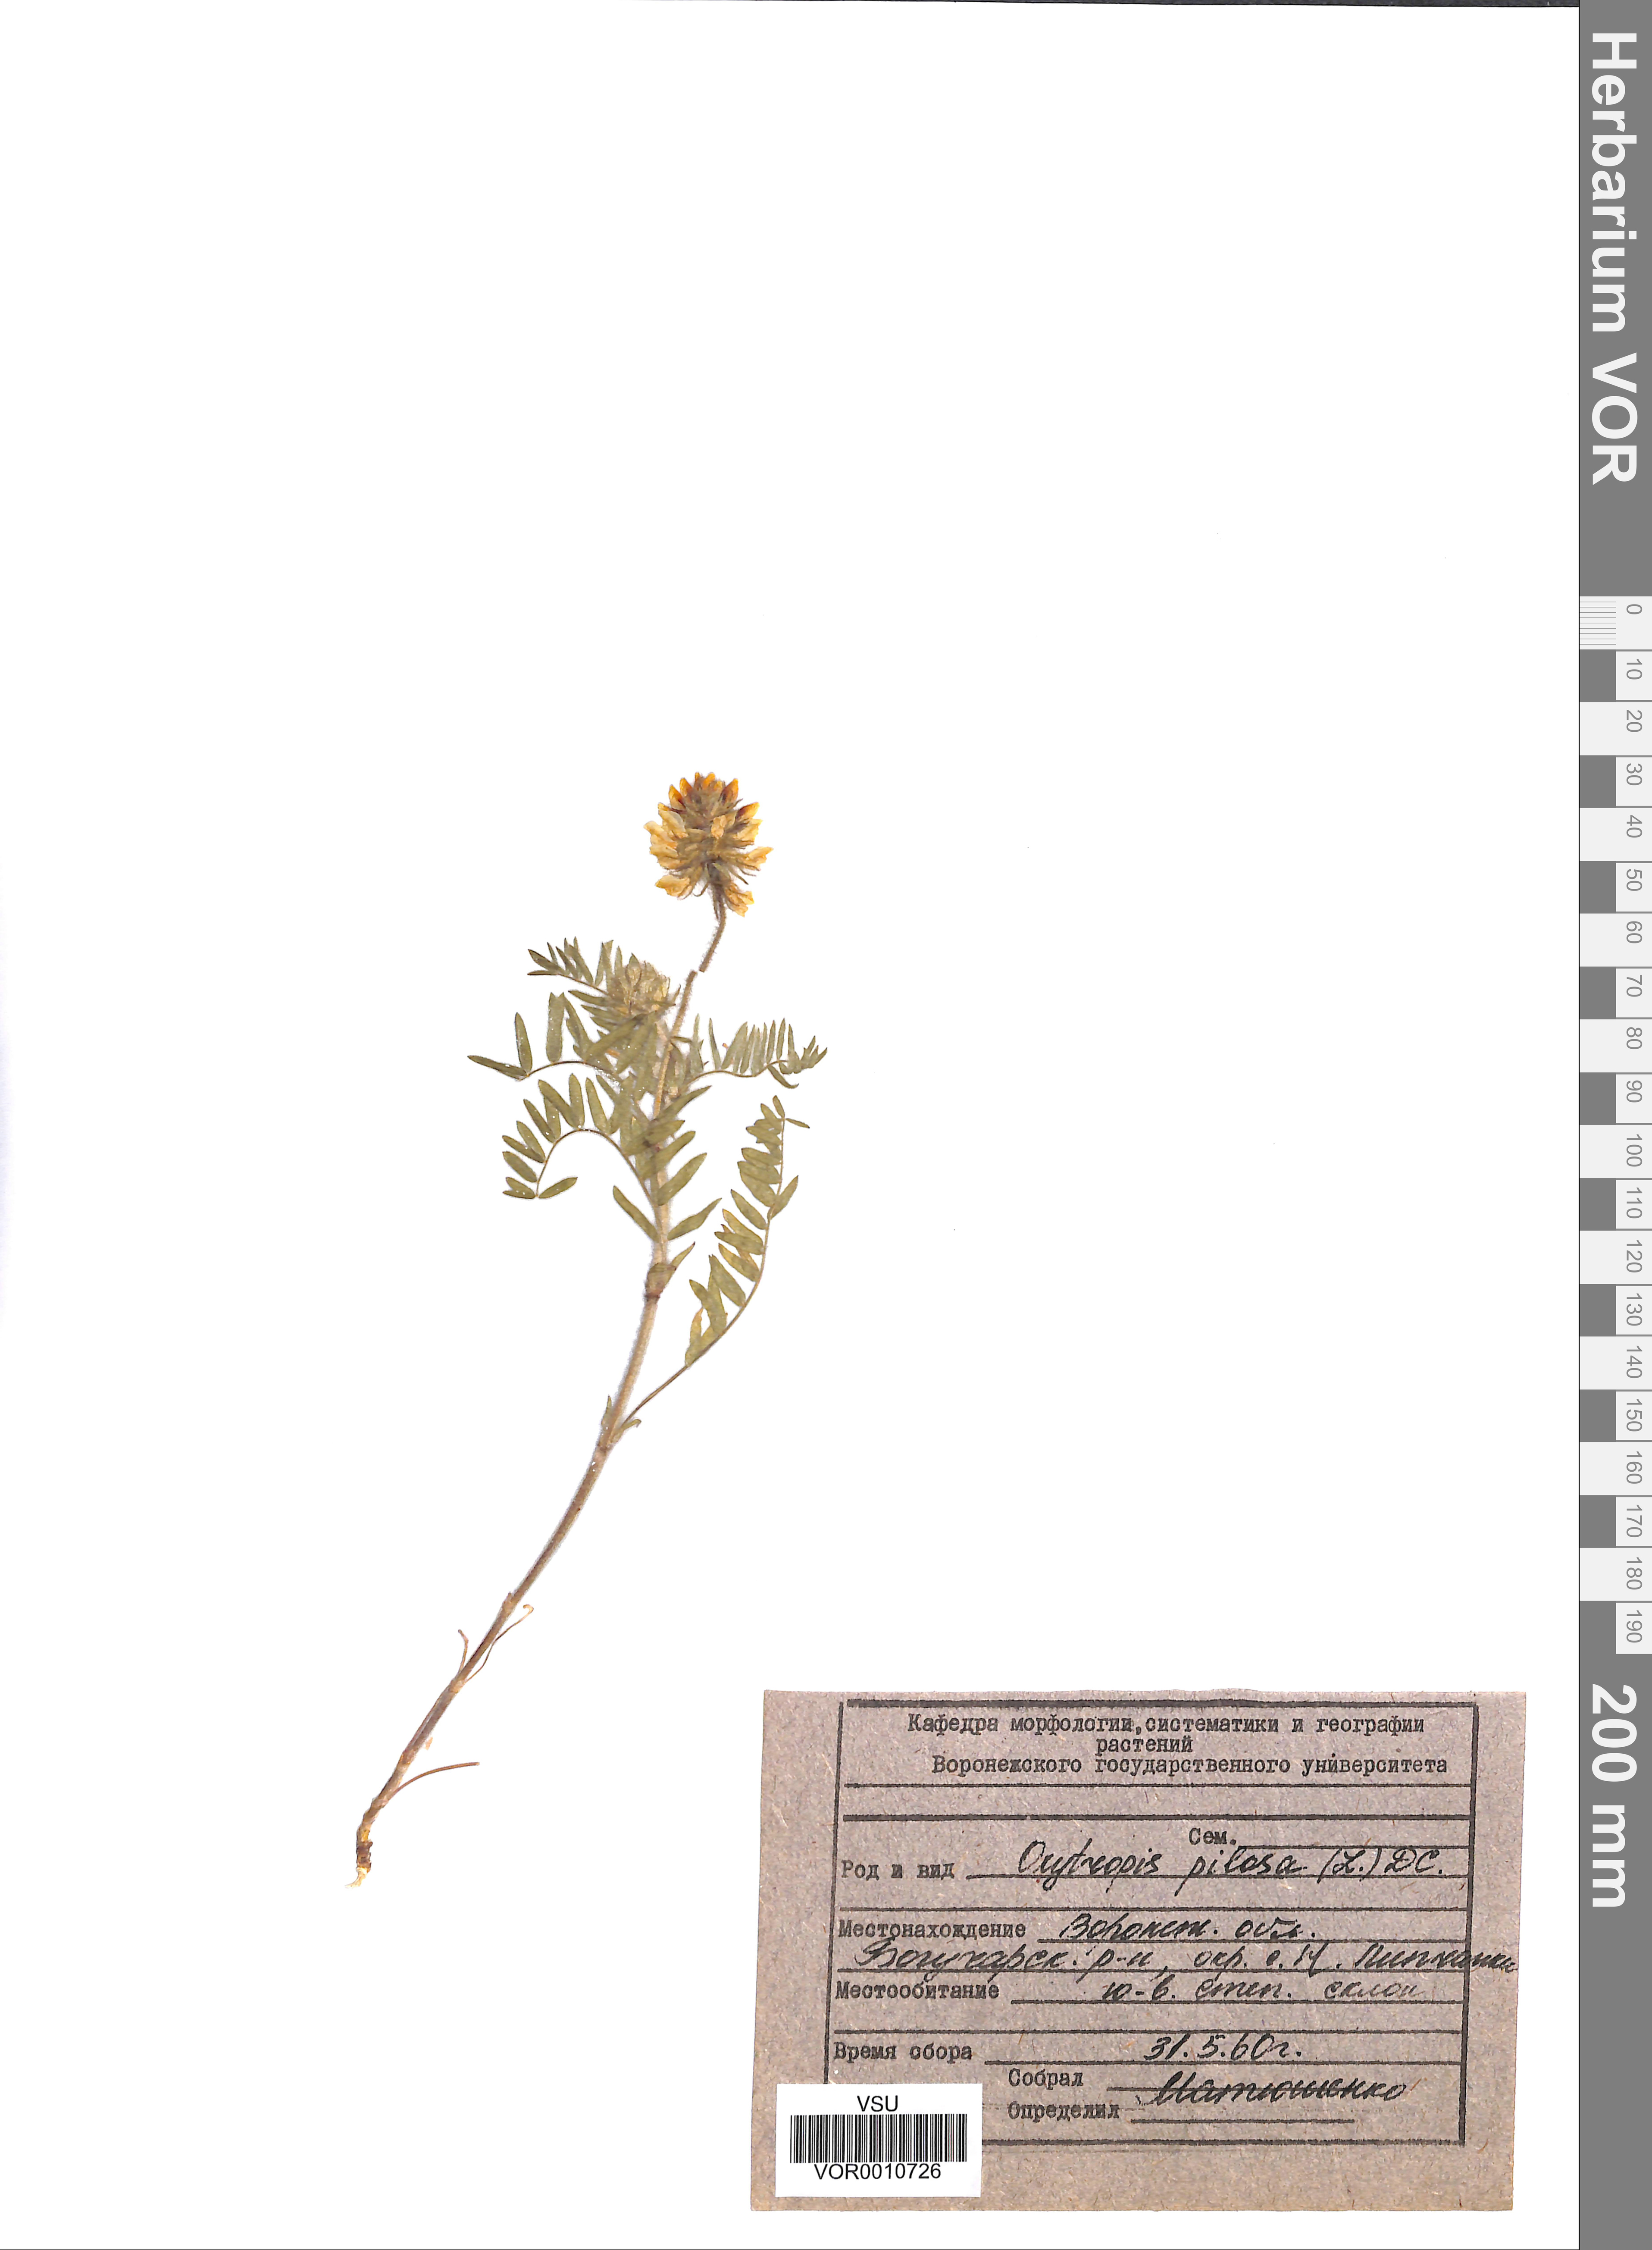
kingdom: Plantae
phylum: Tracheophyta
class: Magnoliopsida
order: Fabales
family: Fabaceae
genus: Oxytropis
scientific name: Oxytropis pilosa
